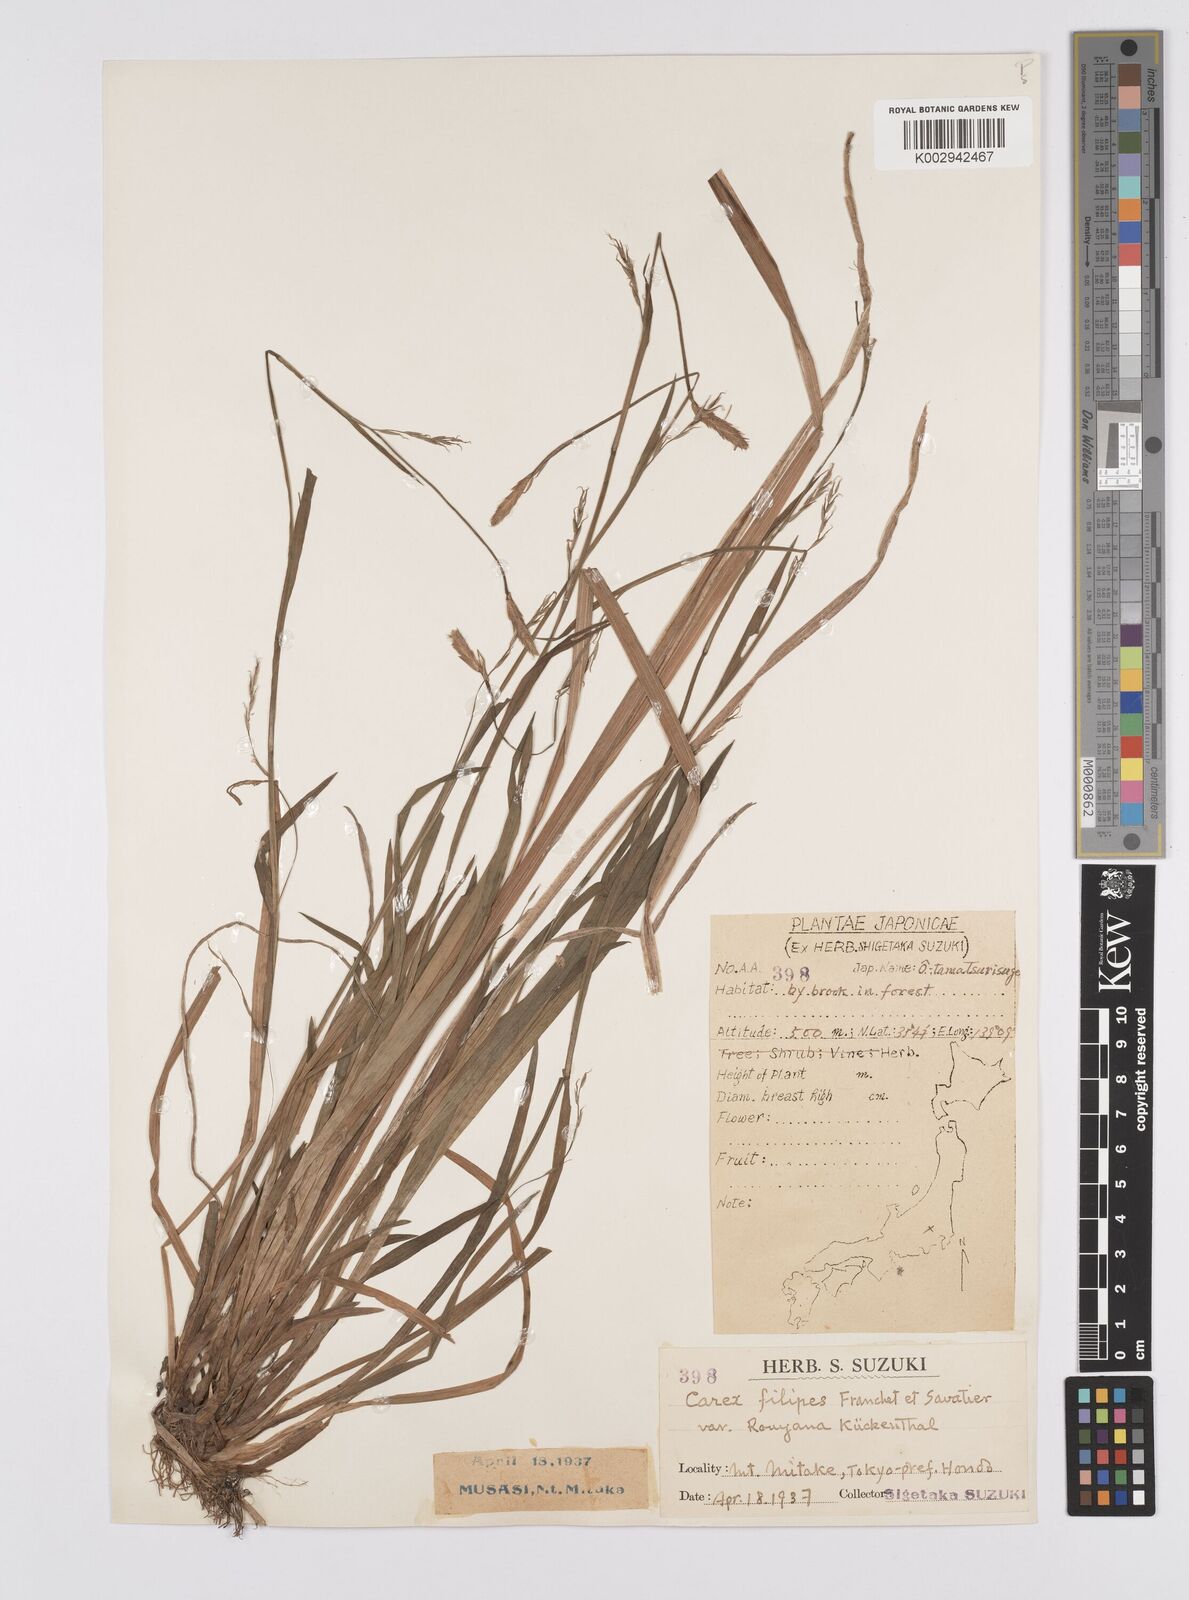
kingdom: Plantae
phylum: Tracheophyta
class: Liliopsida
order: Poales
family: Cyperaceae
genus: Carex
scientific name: Carex filipes
